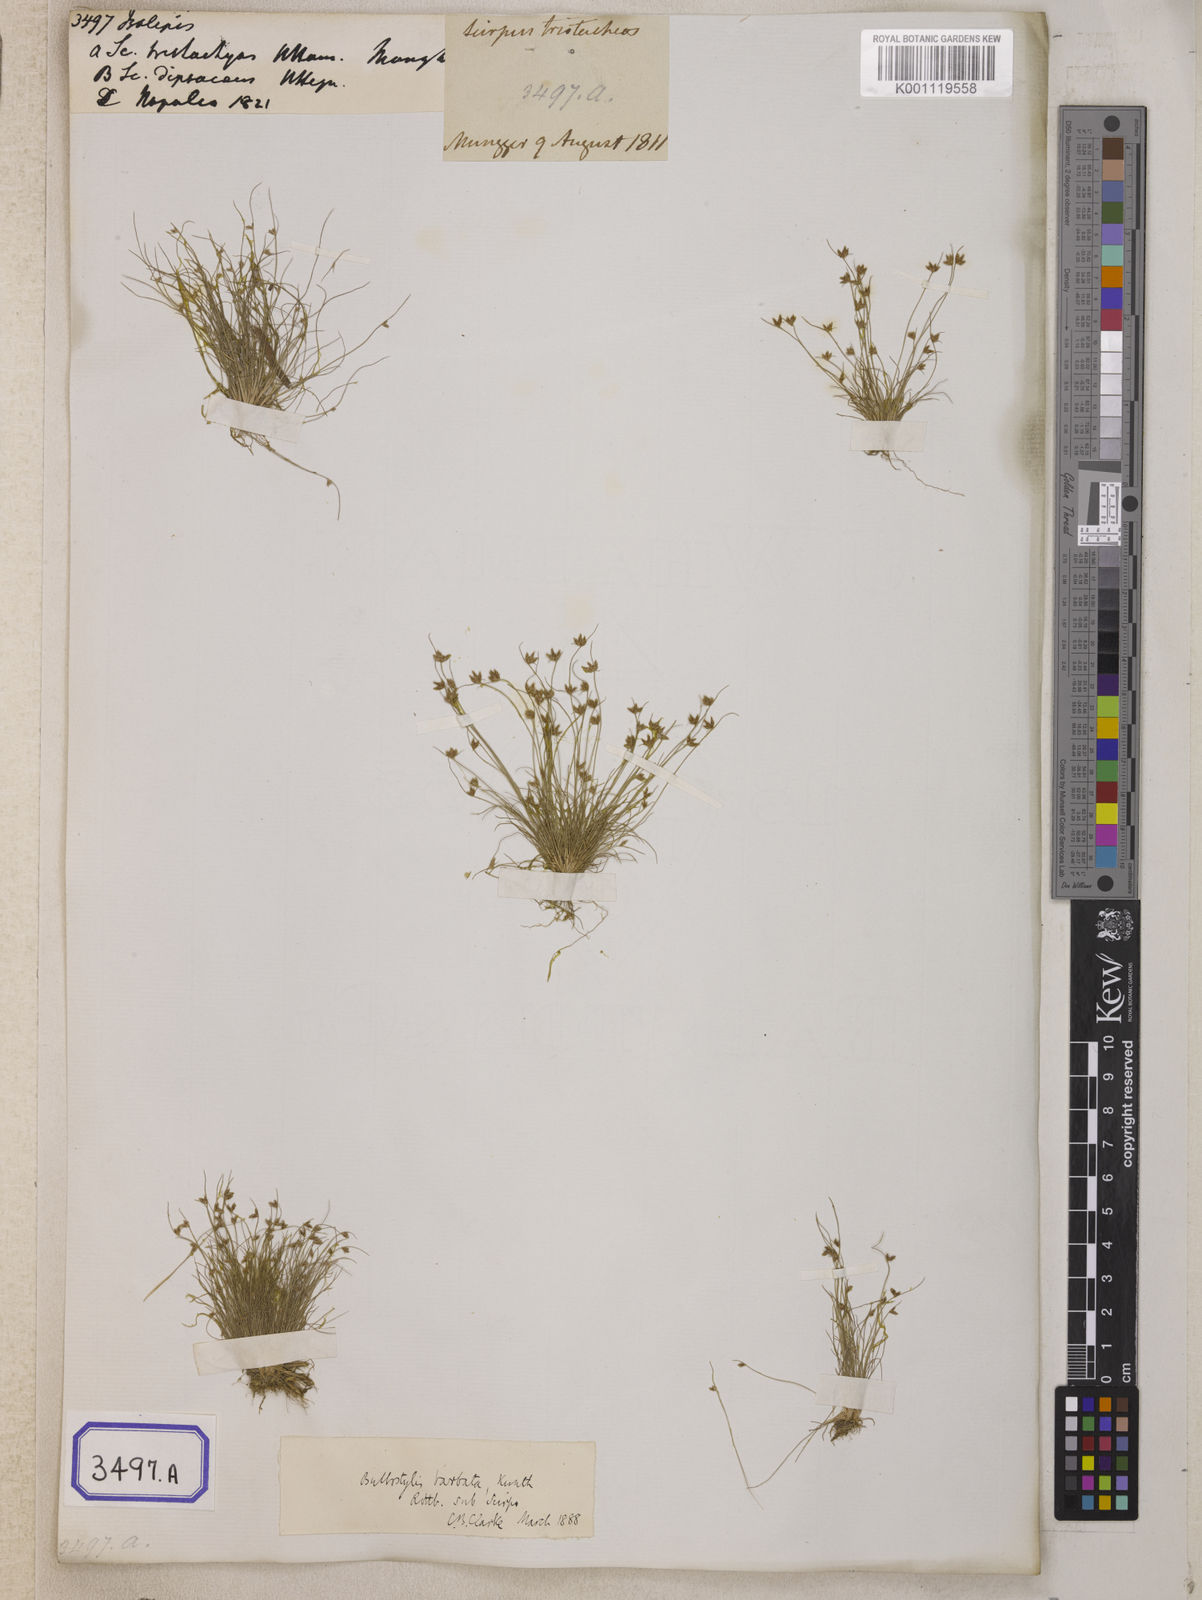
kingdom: Plantae
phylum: Tracheophyta
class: Liliopsida
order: Poales
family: Cyperaceae
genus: Isolepis
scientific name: Isolepis
